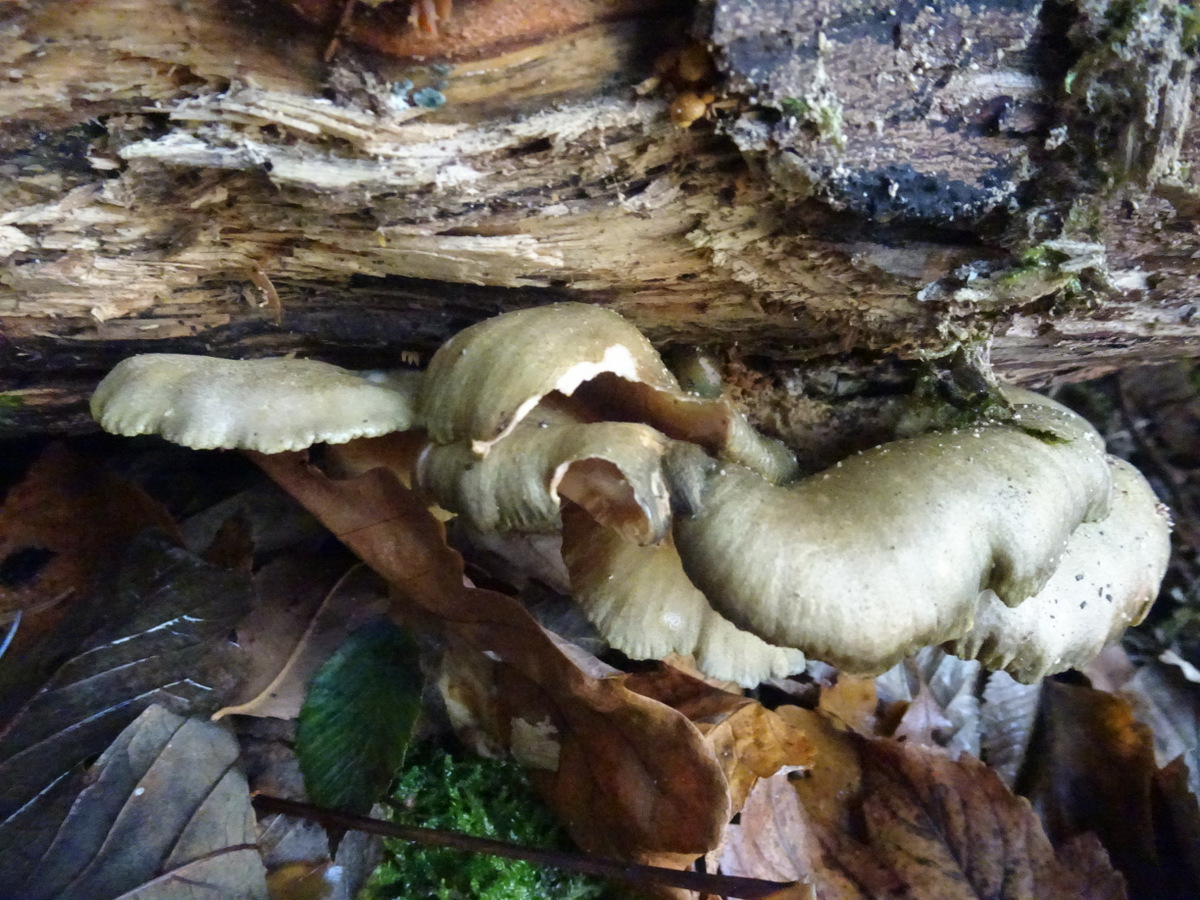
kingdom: Fungi
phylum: Basidiomycota
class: Agaricomycetes
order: Agaricales
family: Sarcomyxaceae
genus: Sarcomyxa
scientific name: Sarcomyxa serotina
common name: gummihat
